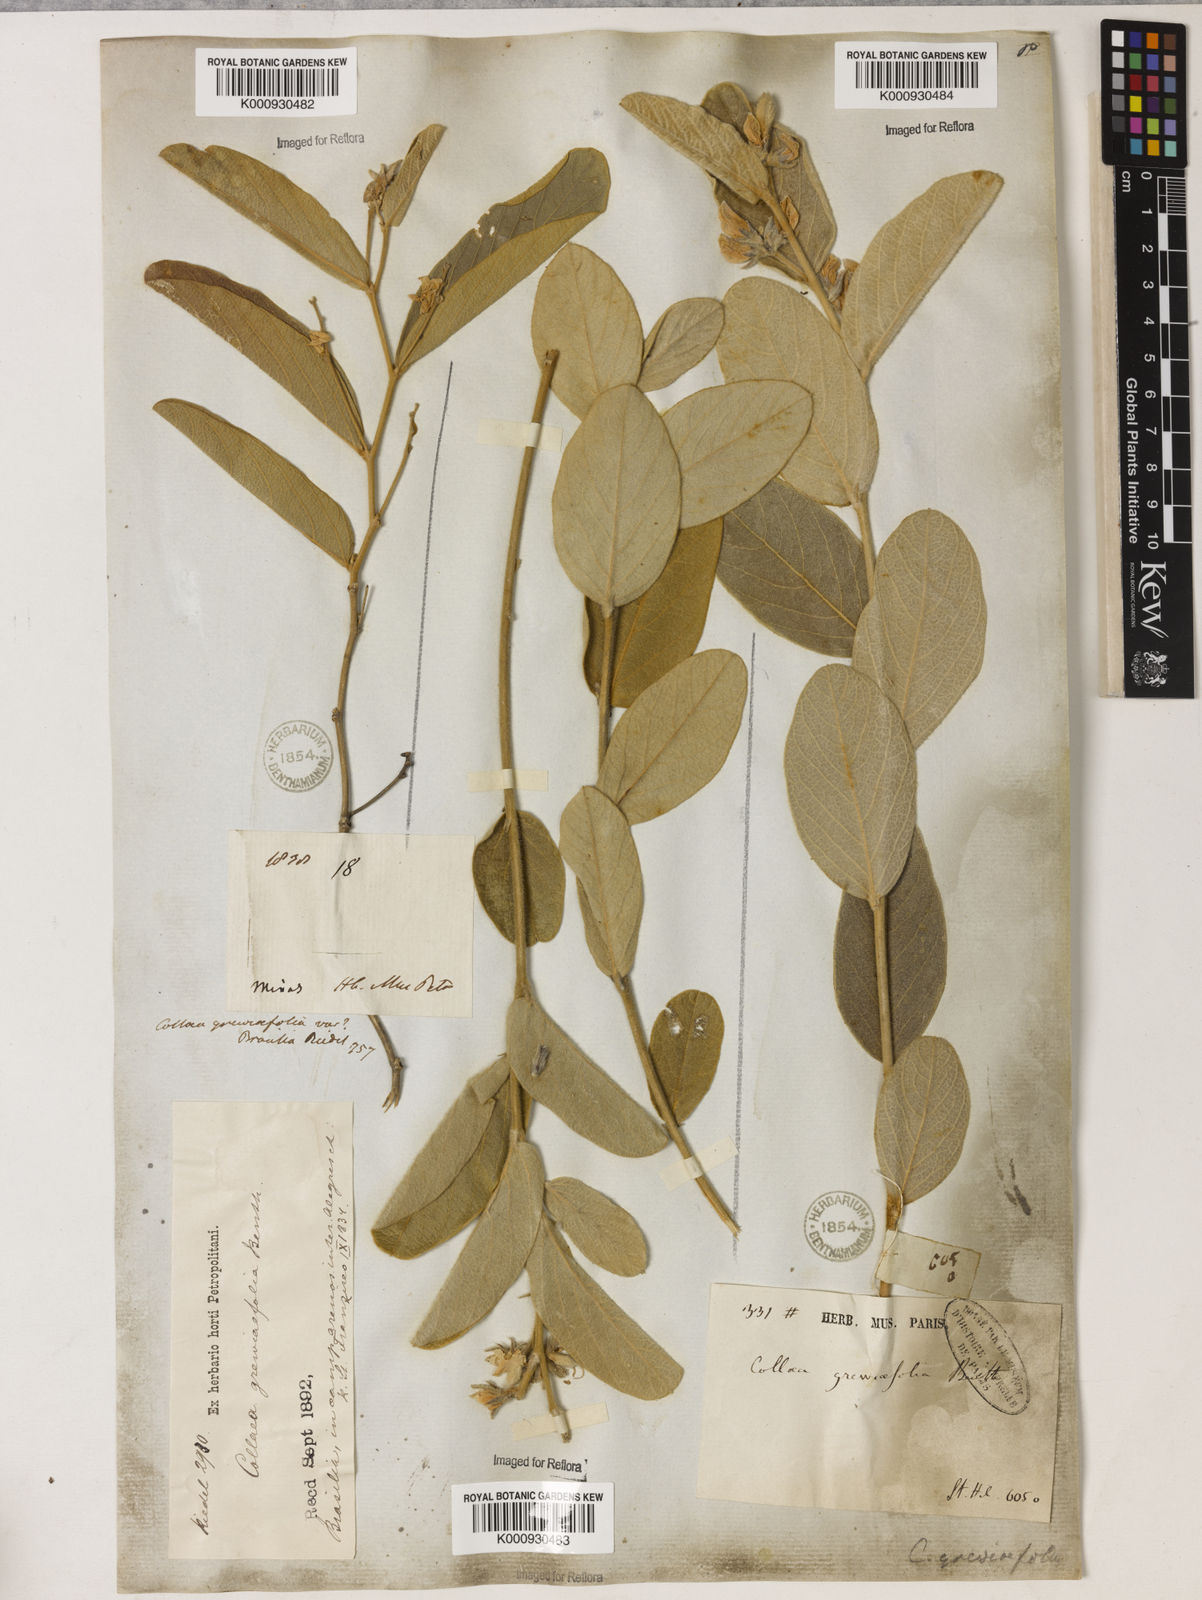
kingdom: Plantae
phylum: Tracheophyta
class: Magnoliopsida
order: Fabales
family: Fabaceae
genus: Galactia
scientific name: Galactia
